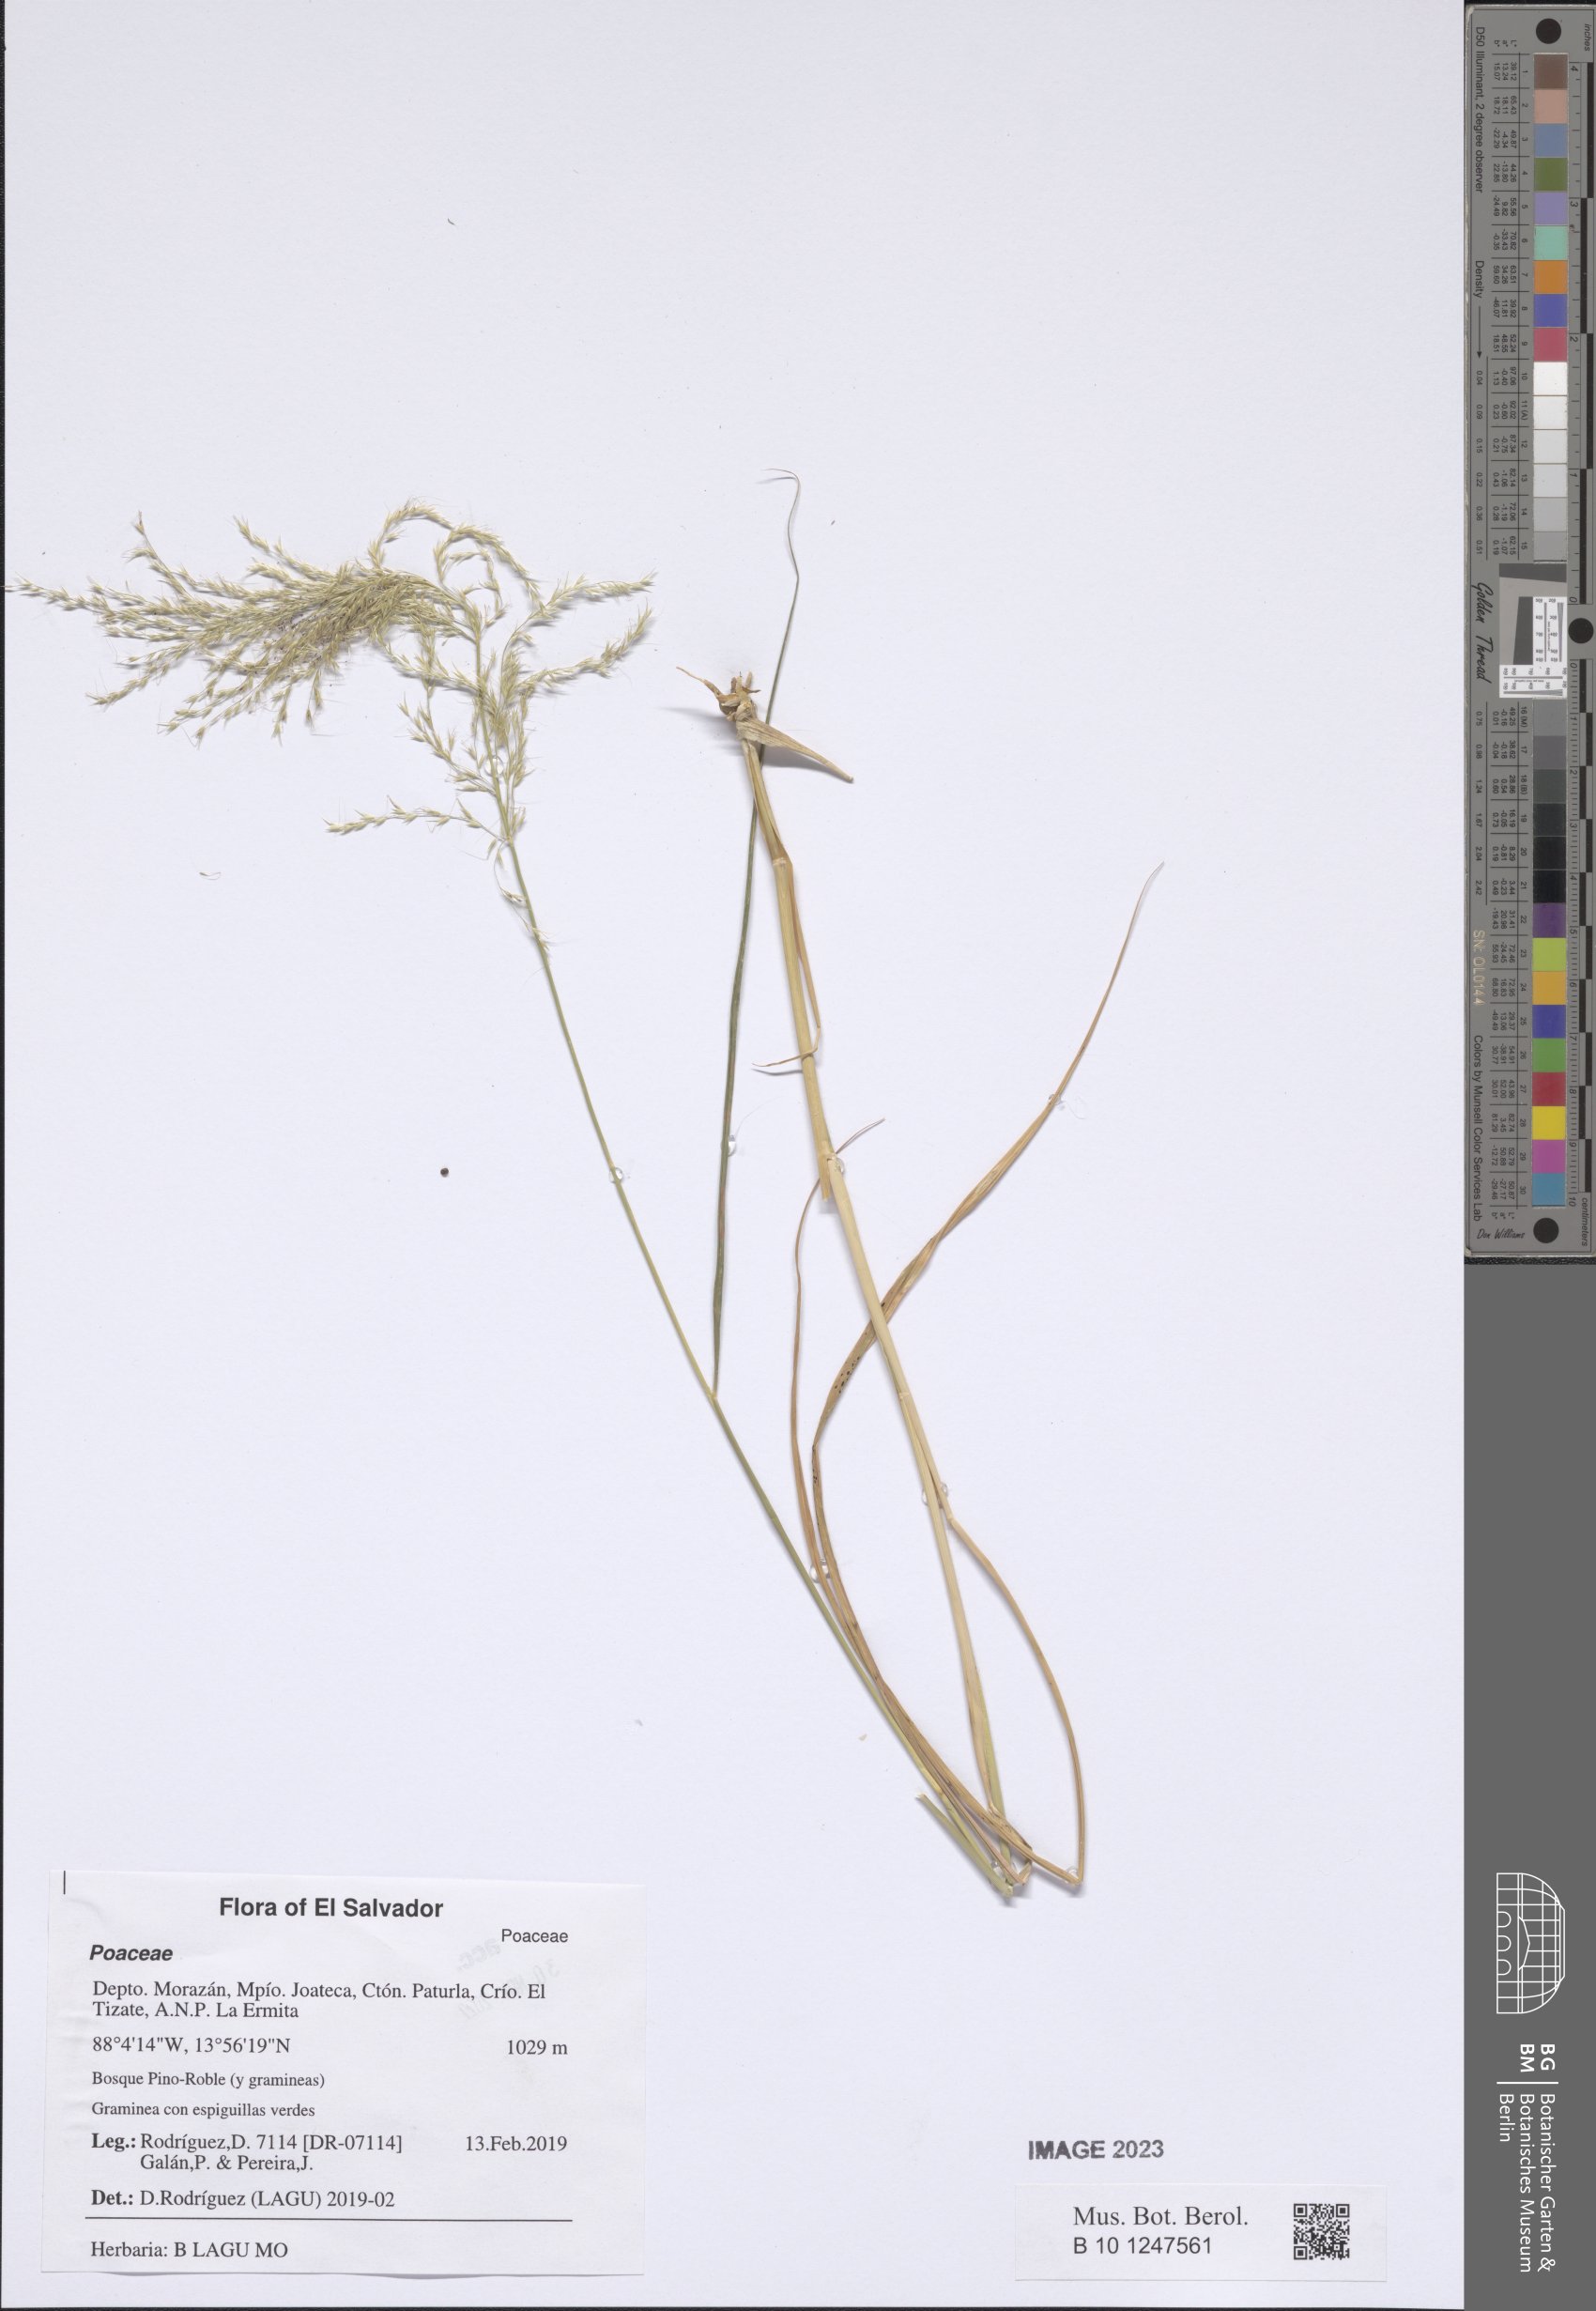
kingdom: Plantae
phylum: Tracheophyta
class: Liliopsida
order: Poales
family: Poaceae
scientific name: Poaceae
